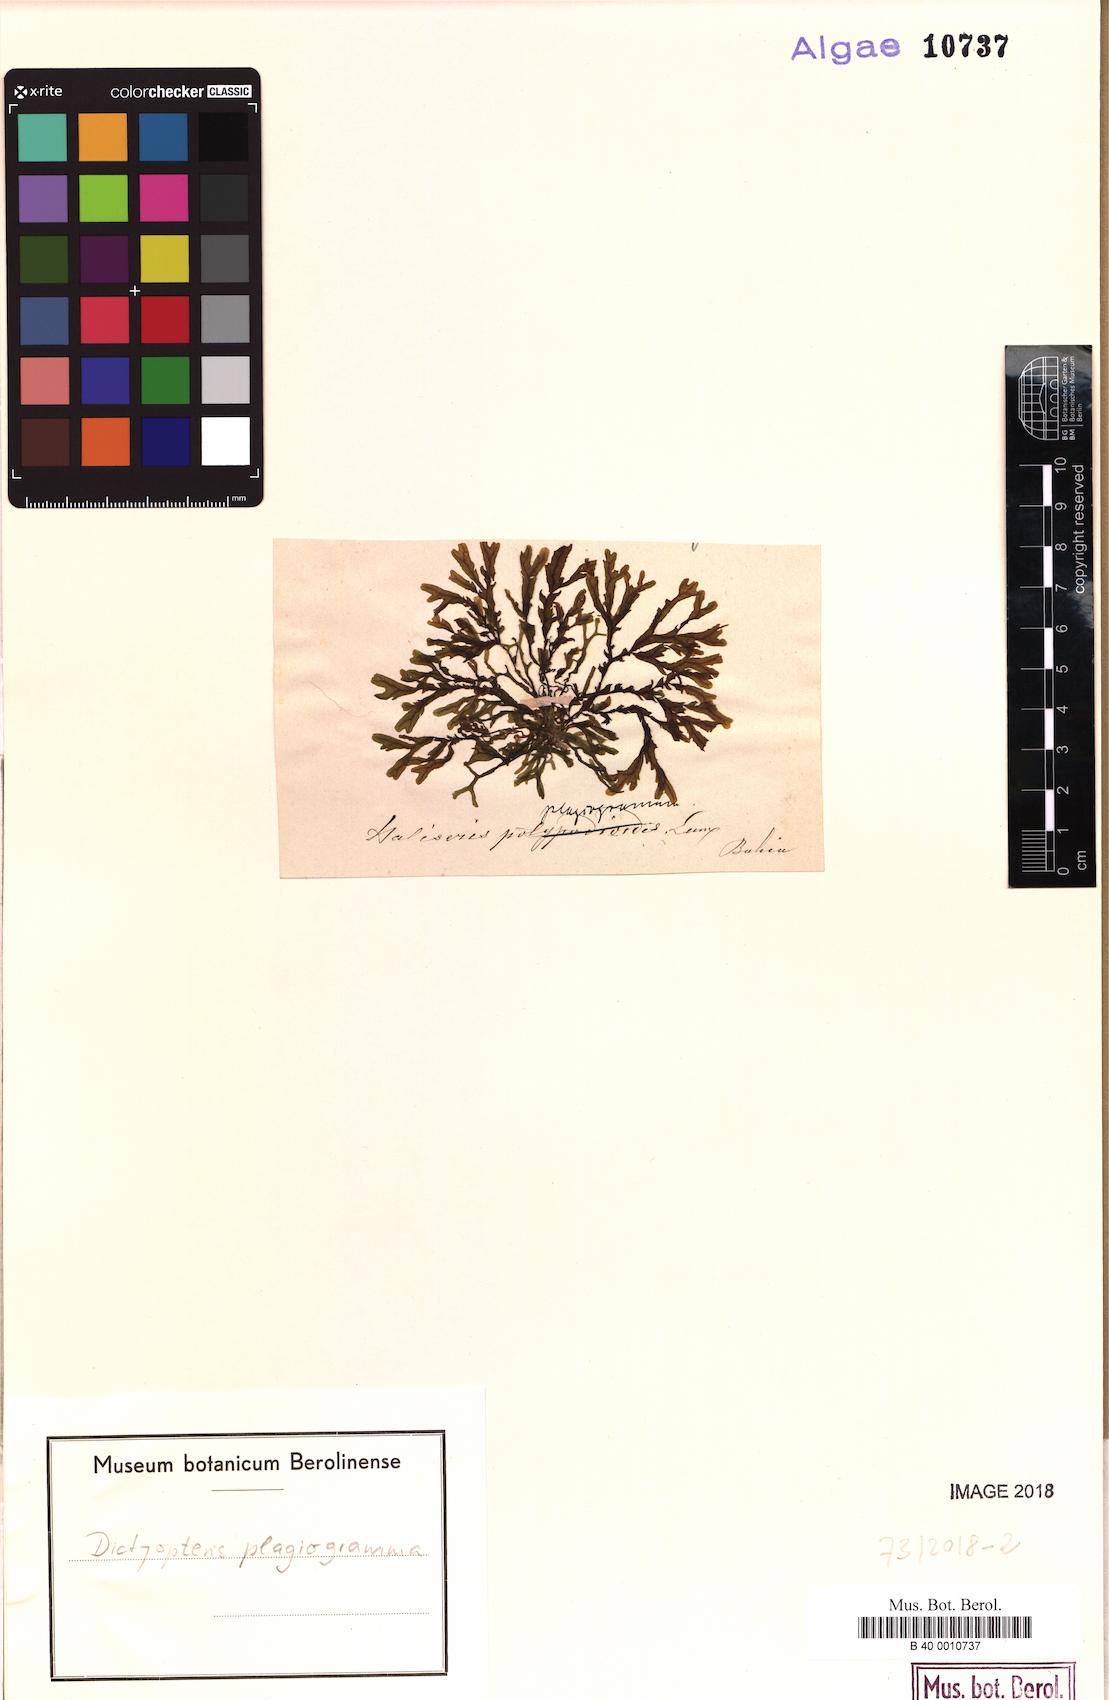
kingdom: Chromista
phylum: Ochrophyta
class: Phaeophyceae
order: Dictyotales
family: Dictyotaceae
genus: Dictyopteris
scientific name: Dictyopteris plagiogramma
